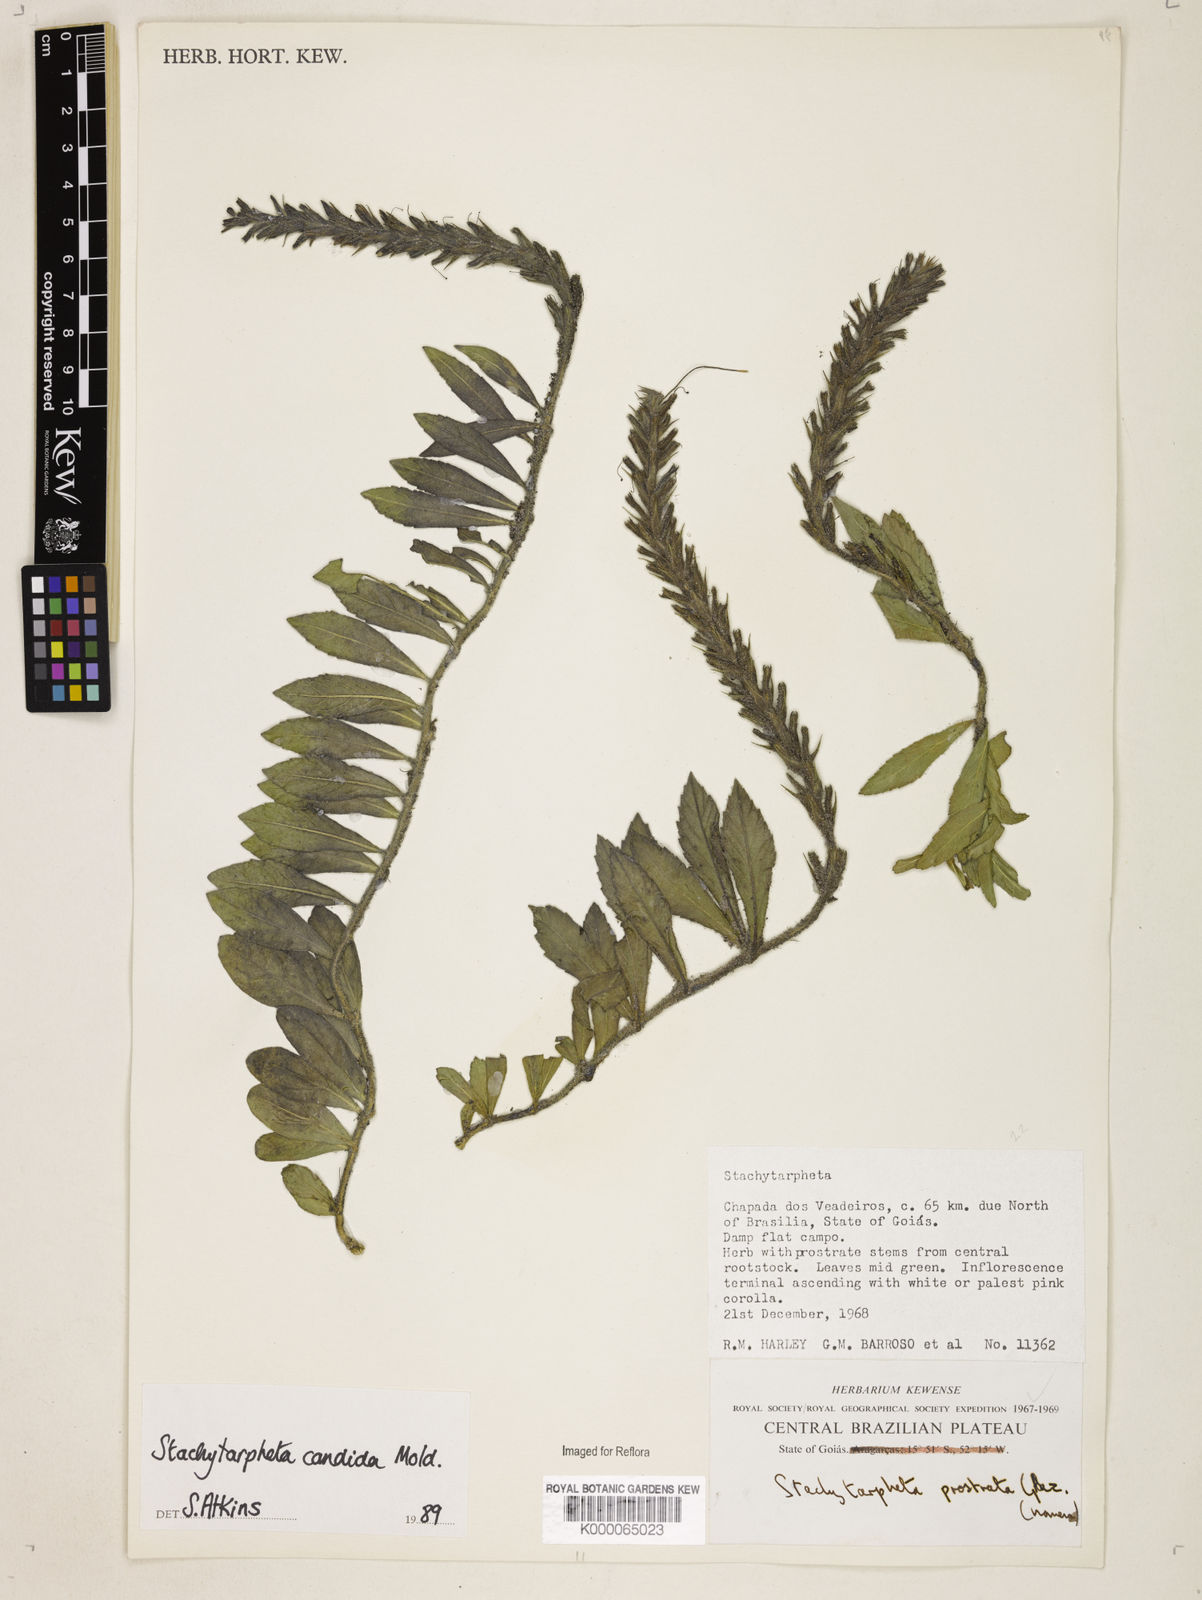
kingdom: Plantae
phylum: Tracheophyta
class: Magnoliopsida
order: Lamiales
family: Verbenaceae
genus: Stachytarpheta
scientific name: Stachytarpheta candida
